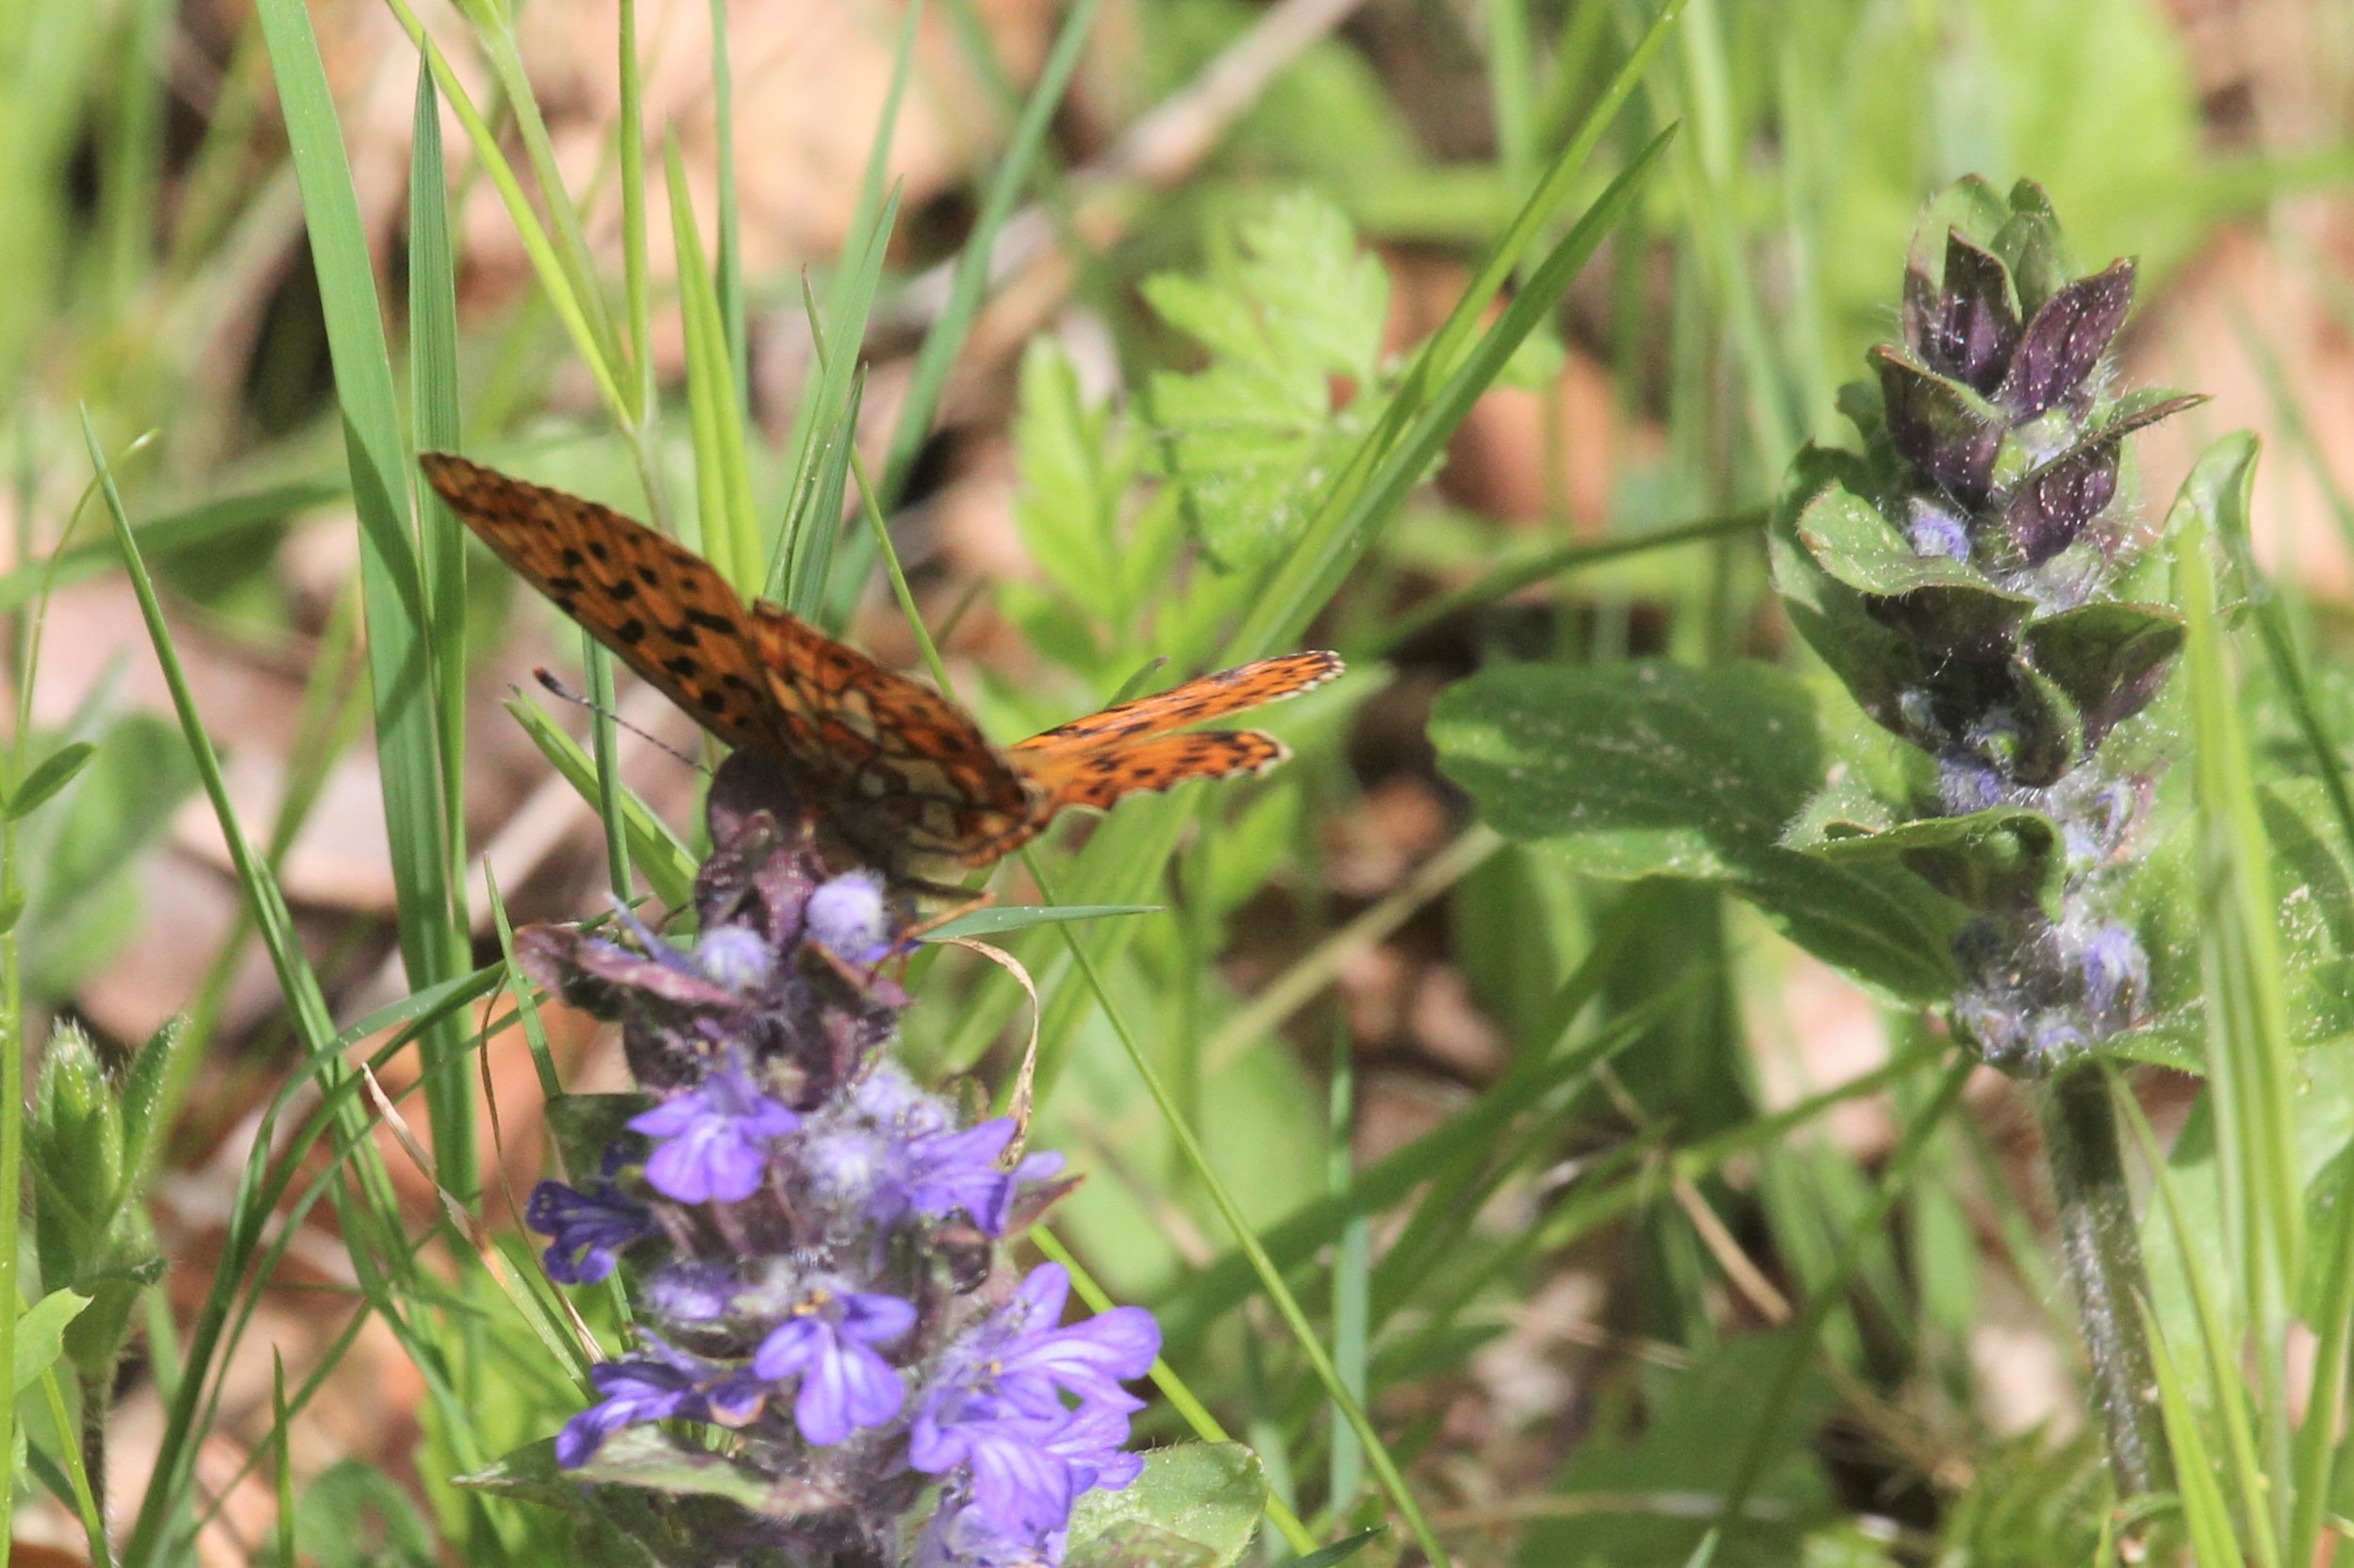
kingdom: Animalia
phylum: Arthropoda
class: Insecta
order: Lepidoptera
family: Nymphalidae
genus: Clossiana
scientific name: Clossiana euphrosyne
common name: Rødlig perlemorsommerfugl
